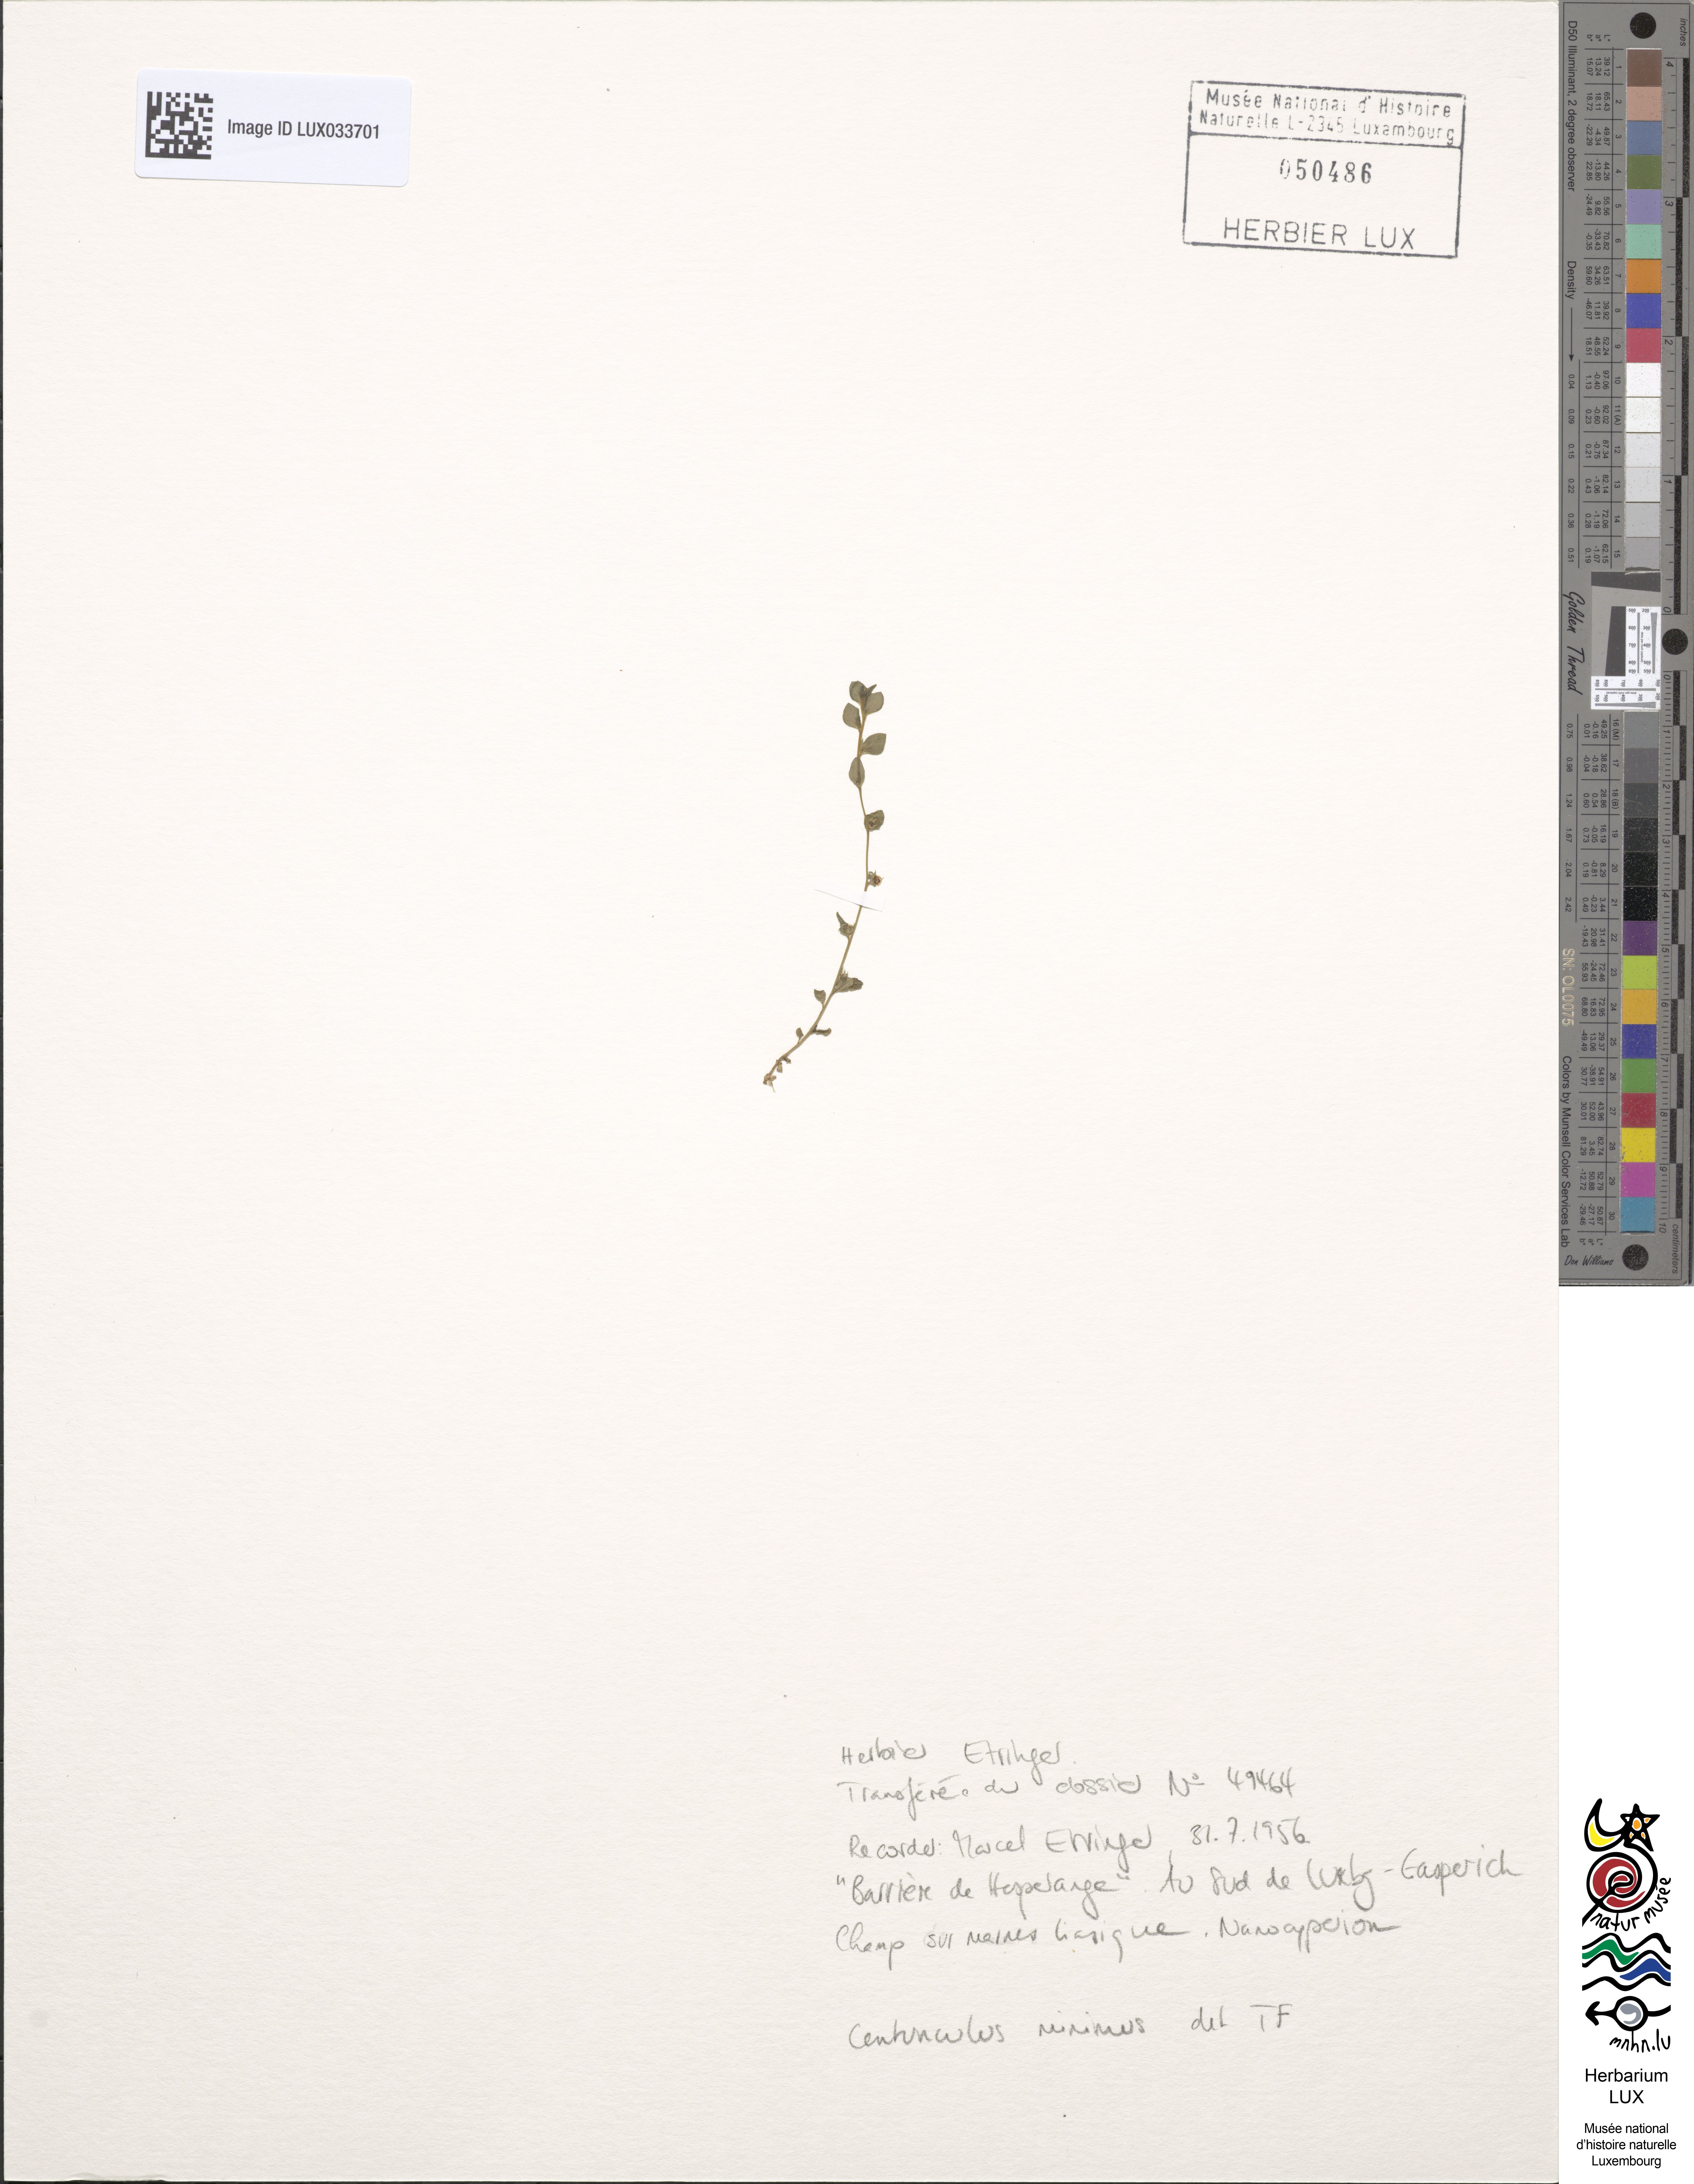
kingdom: Plantae
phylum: Tracheophyta
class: Magnoliopsida
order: Ericales
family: Primulaceae
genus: Lysimachia
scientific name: Lysimachia minima
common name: Chaffweed
